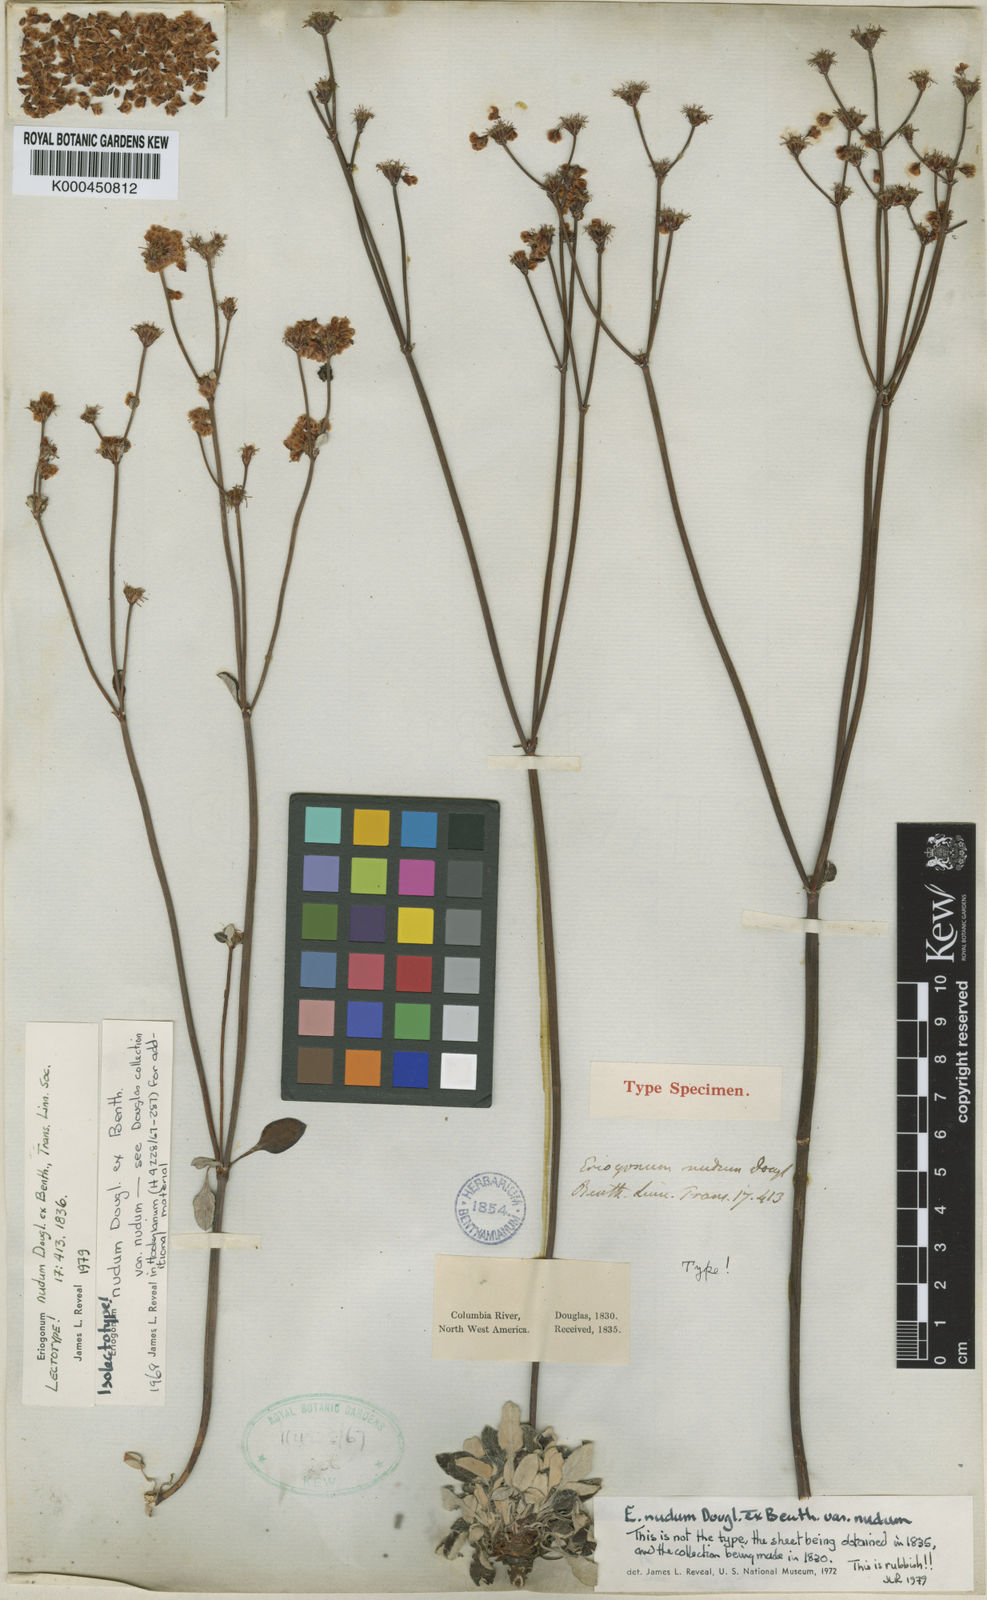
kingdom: Plantae
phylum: Tracheophyta
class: Magnoliopsida
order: Caryophyllales
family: Polygonaceae
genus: Eriogonum
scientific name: Eriogonum nudum
